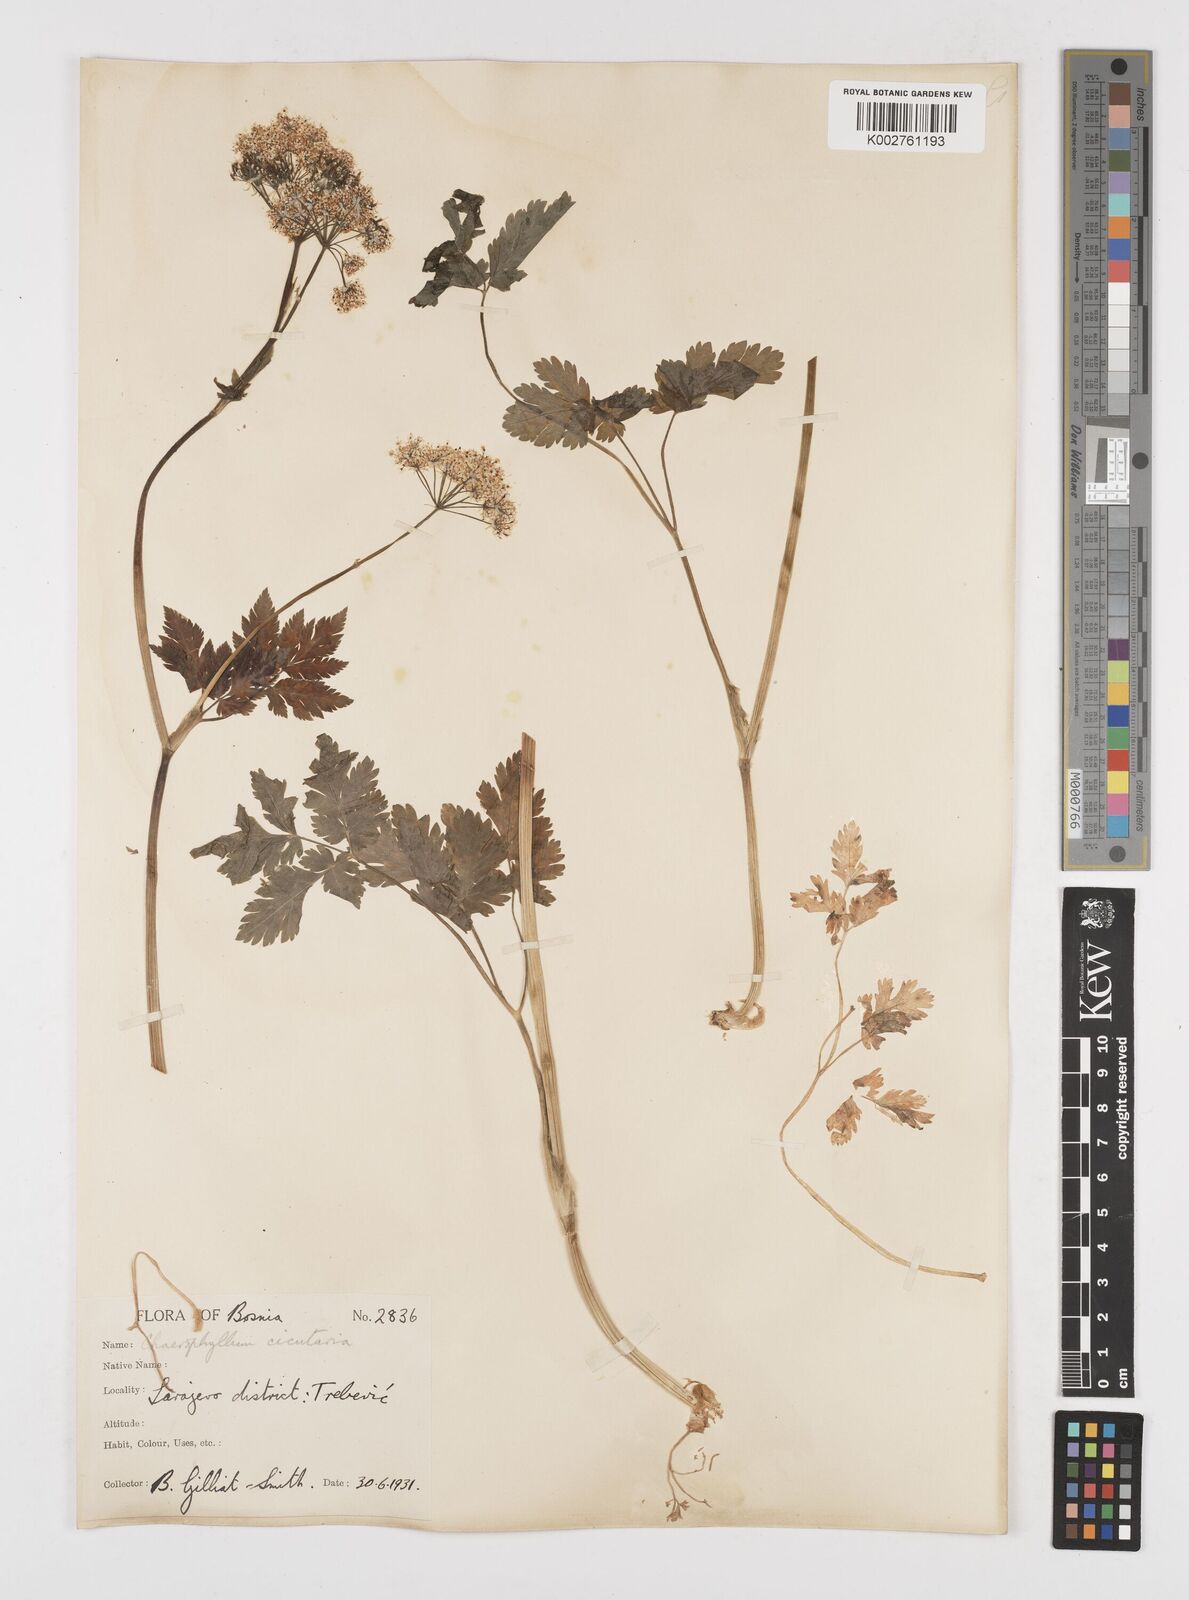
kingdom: Plantae
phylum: Tracheophyta
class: Magnoliopsida
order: Apiales
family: Apiaceae
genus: Chaerophyllum
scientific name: Chaerophyllum hirsutum
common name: Hairy chervil
